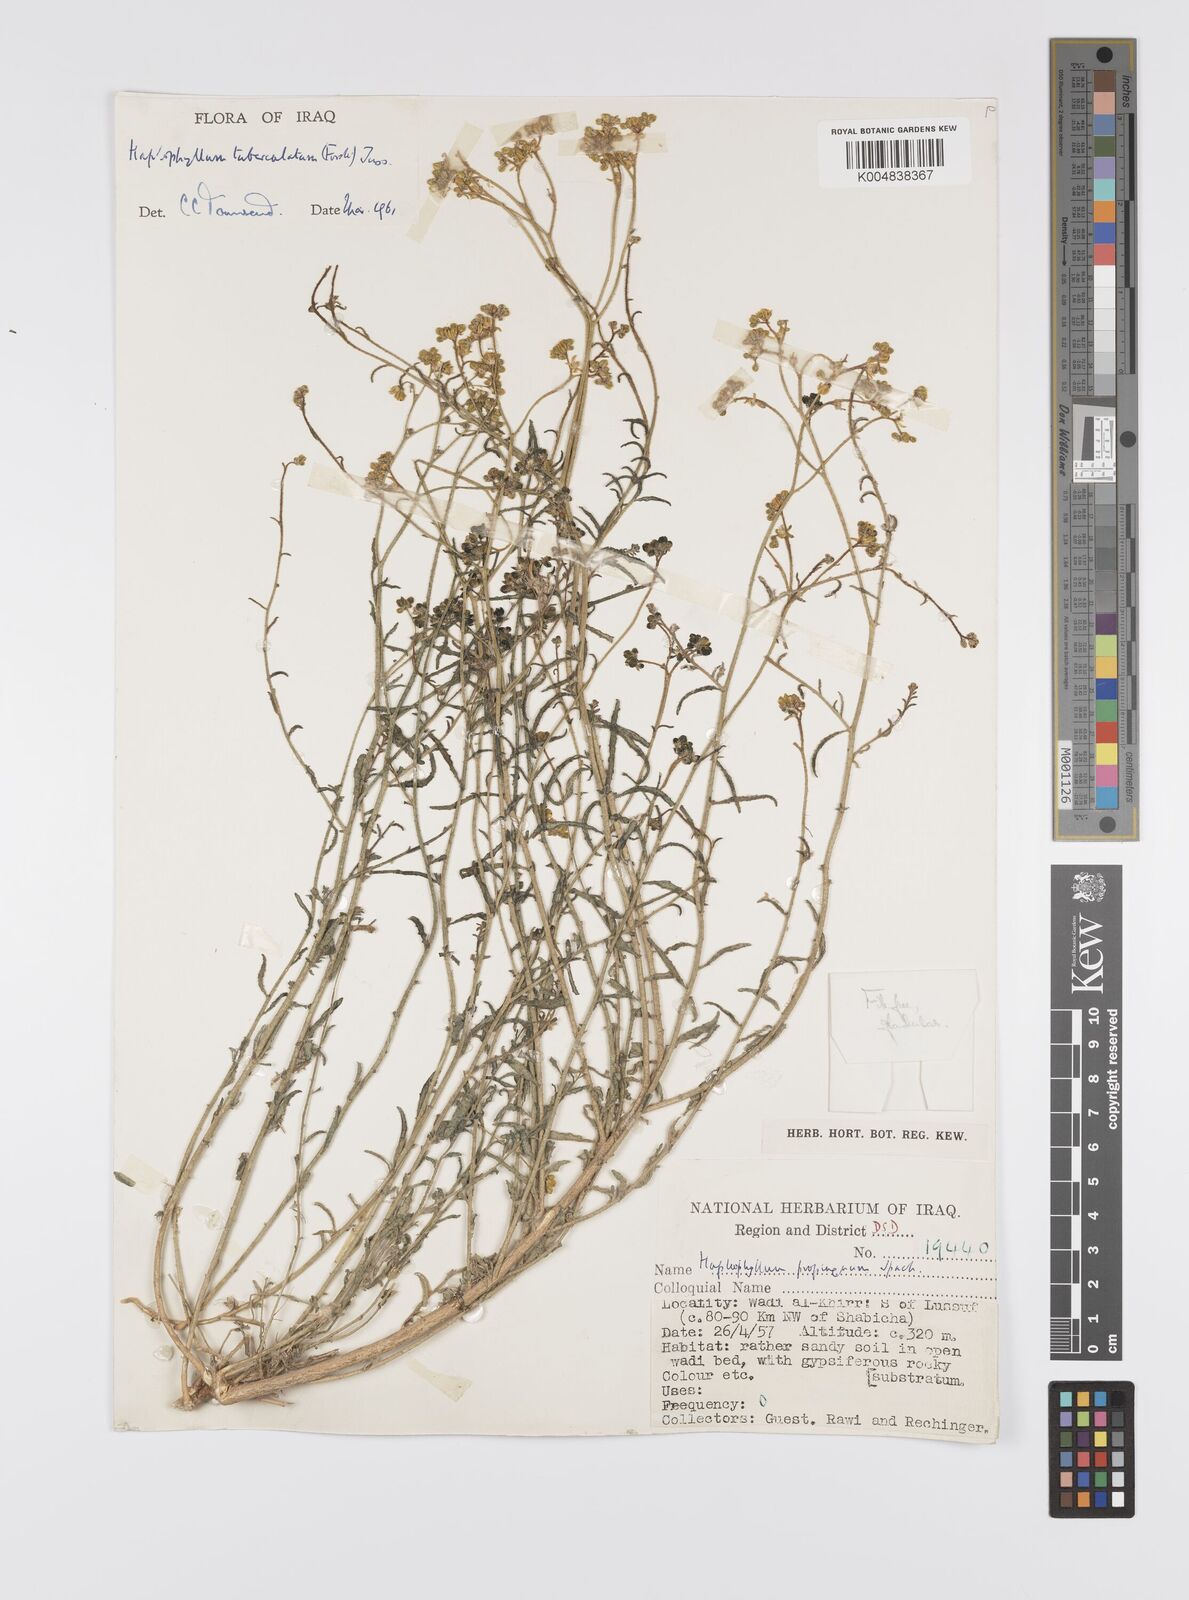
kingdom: Plantae
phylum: Tracheophyta
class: Magnoliopsida
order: Sapindales
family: Rutaceae
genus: Haplophyllum
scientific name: Haplophyllum tuberculatum
